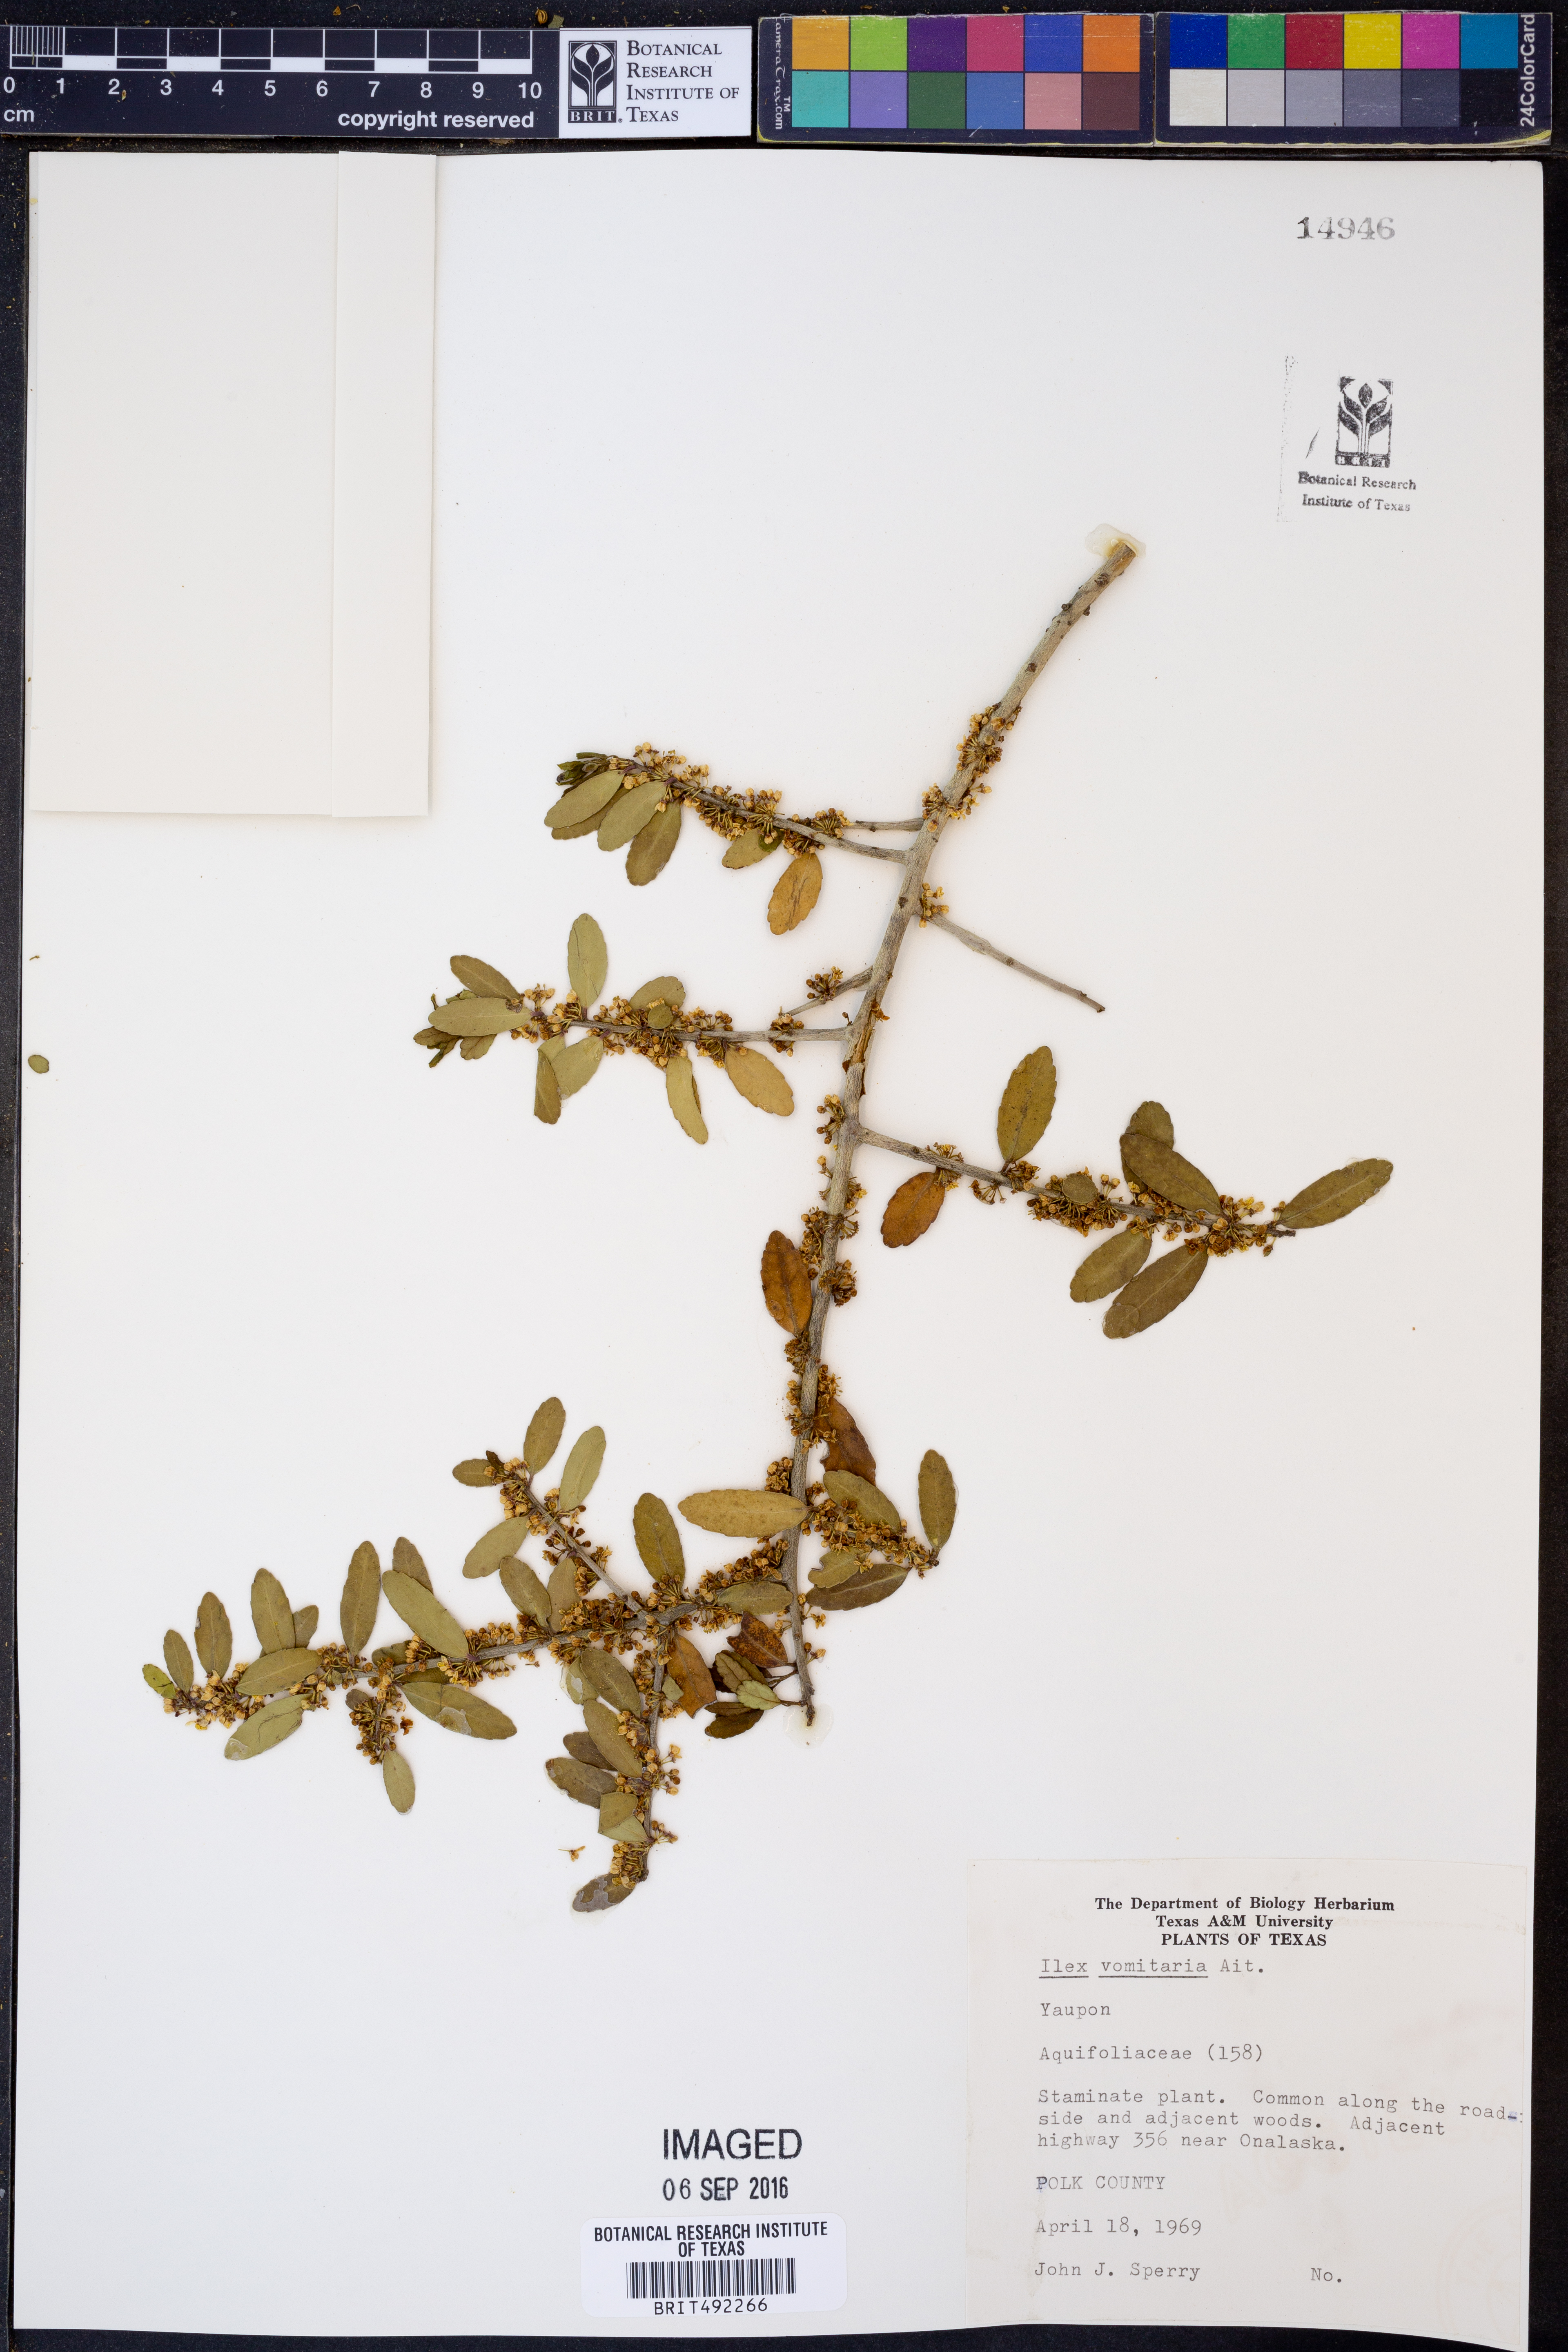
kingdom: Plantae
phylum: Tracheophyta
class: Magnoliopsida
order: Aquifoliales
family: Aquifoliaceae
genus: Ilex
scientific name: Ilex vomitoria
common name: Yaupon holly
